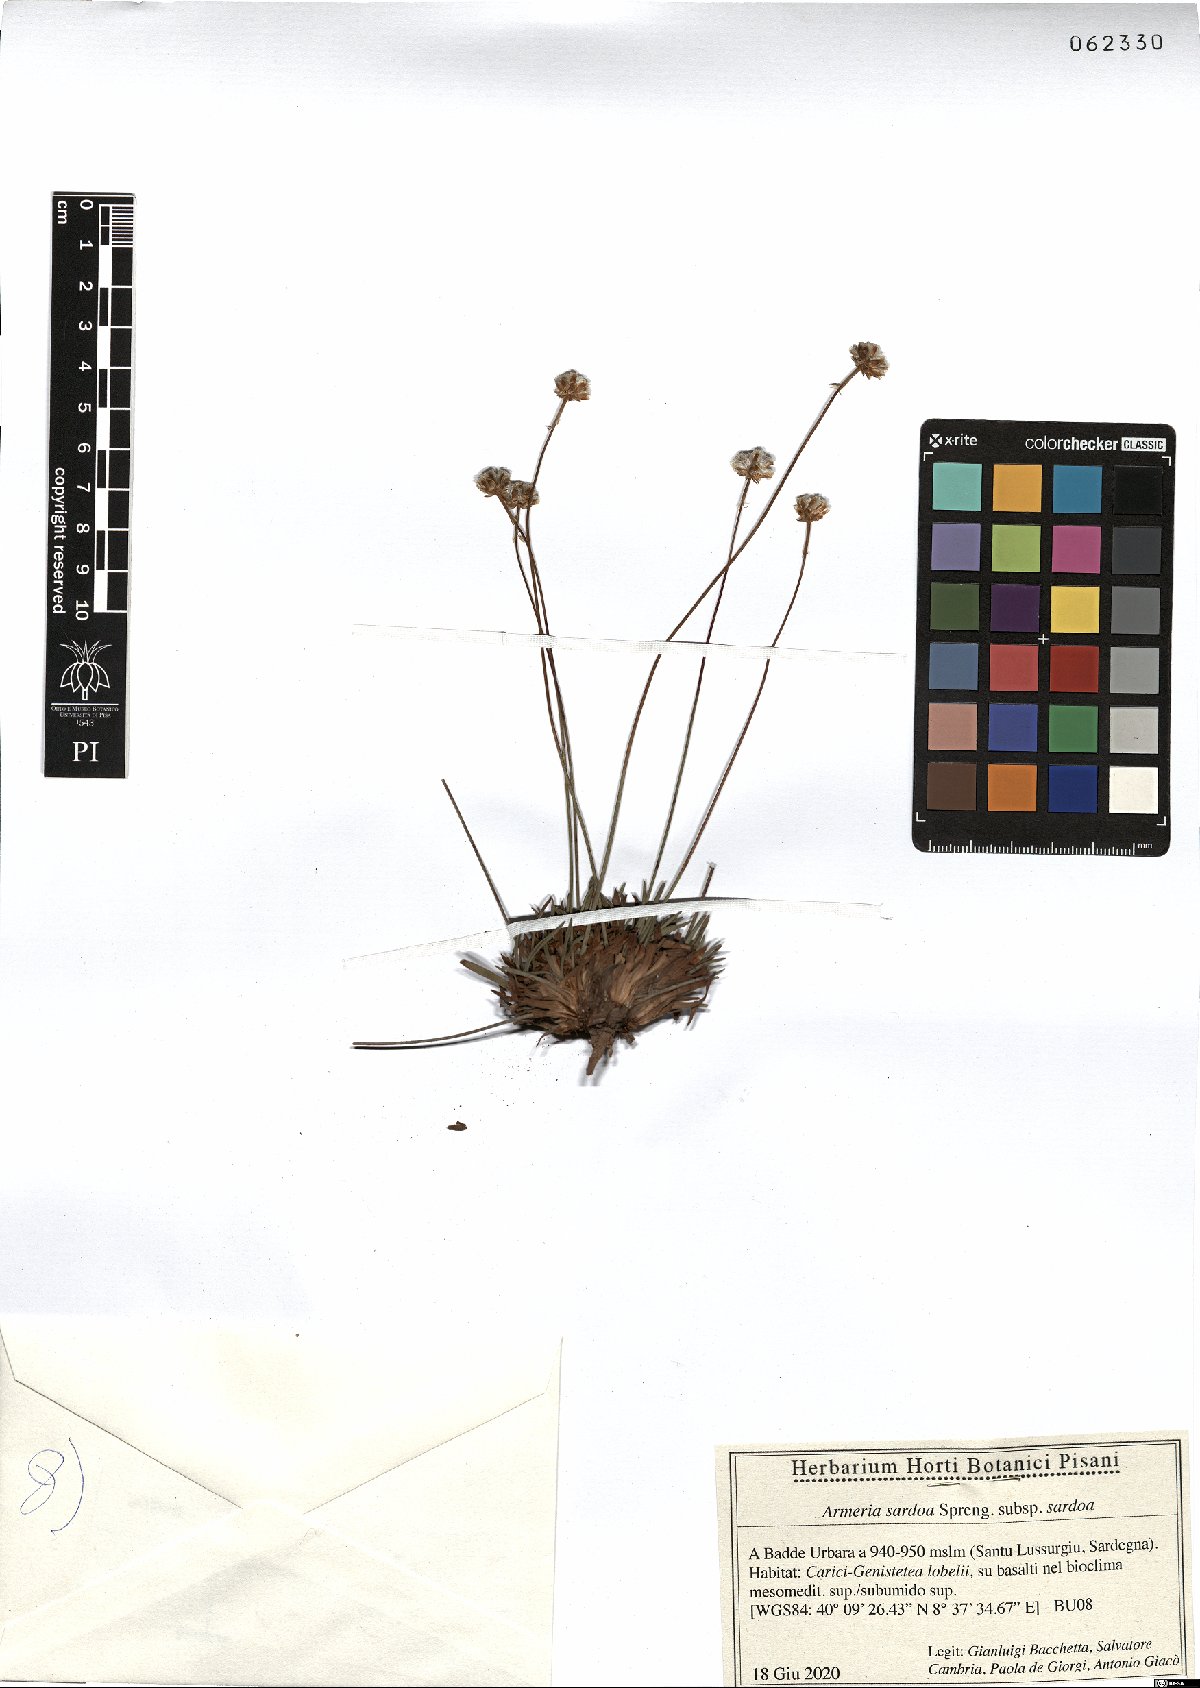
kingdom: Plantae
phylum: Tracheophyta
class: Magnoliopsida
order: Caryophyllales
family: Plumbaginaceae
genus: Armeria
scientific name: Armeria sardoa
